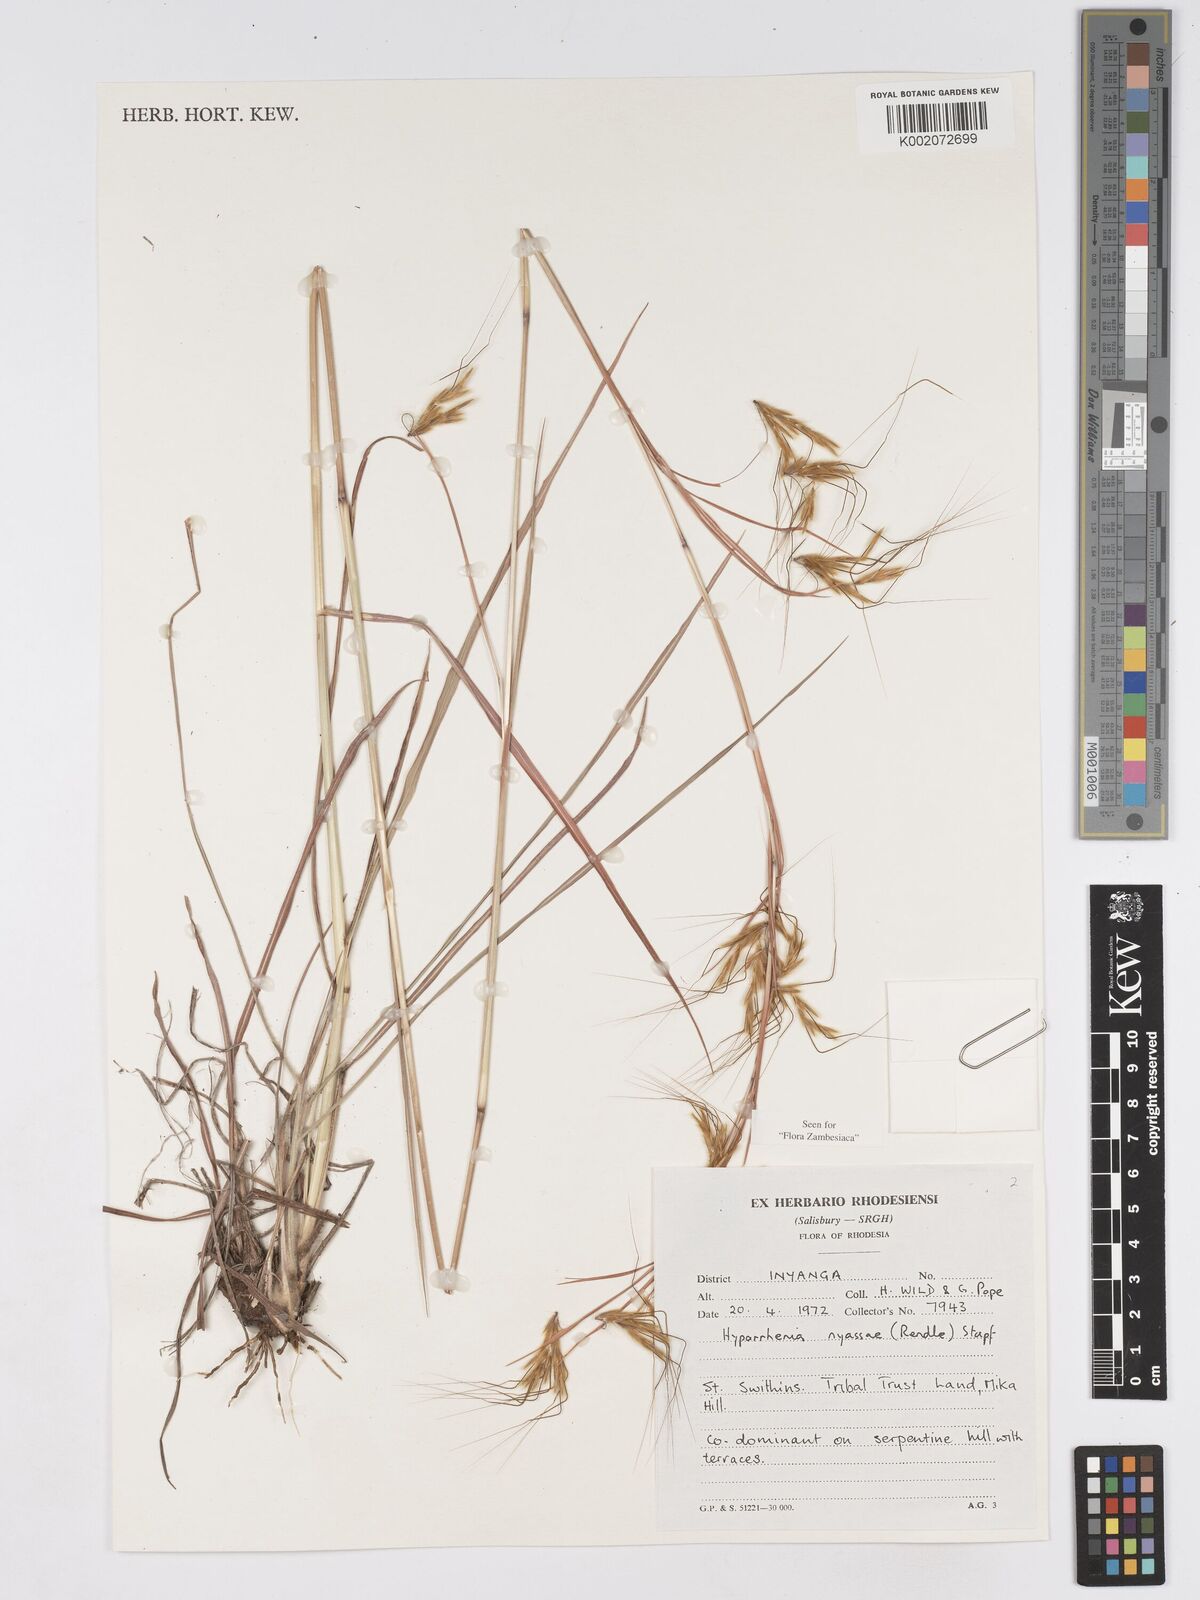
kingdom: Plantae
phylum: Tracheophyta
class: Liliopsida
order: Poales
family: Poaceae
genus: Hyparrhenia
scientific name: Hyparrhenia nyassae
